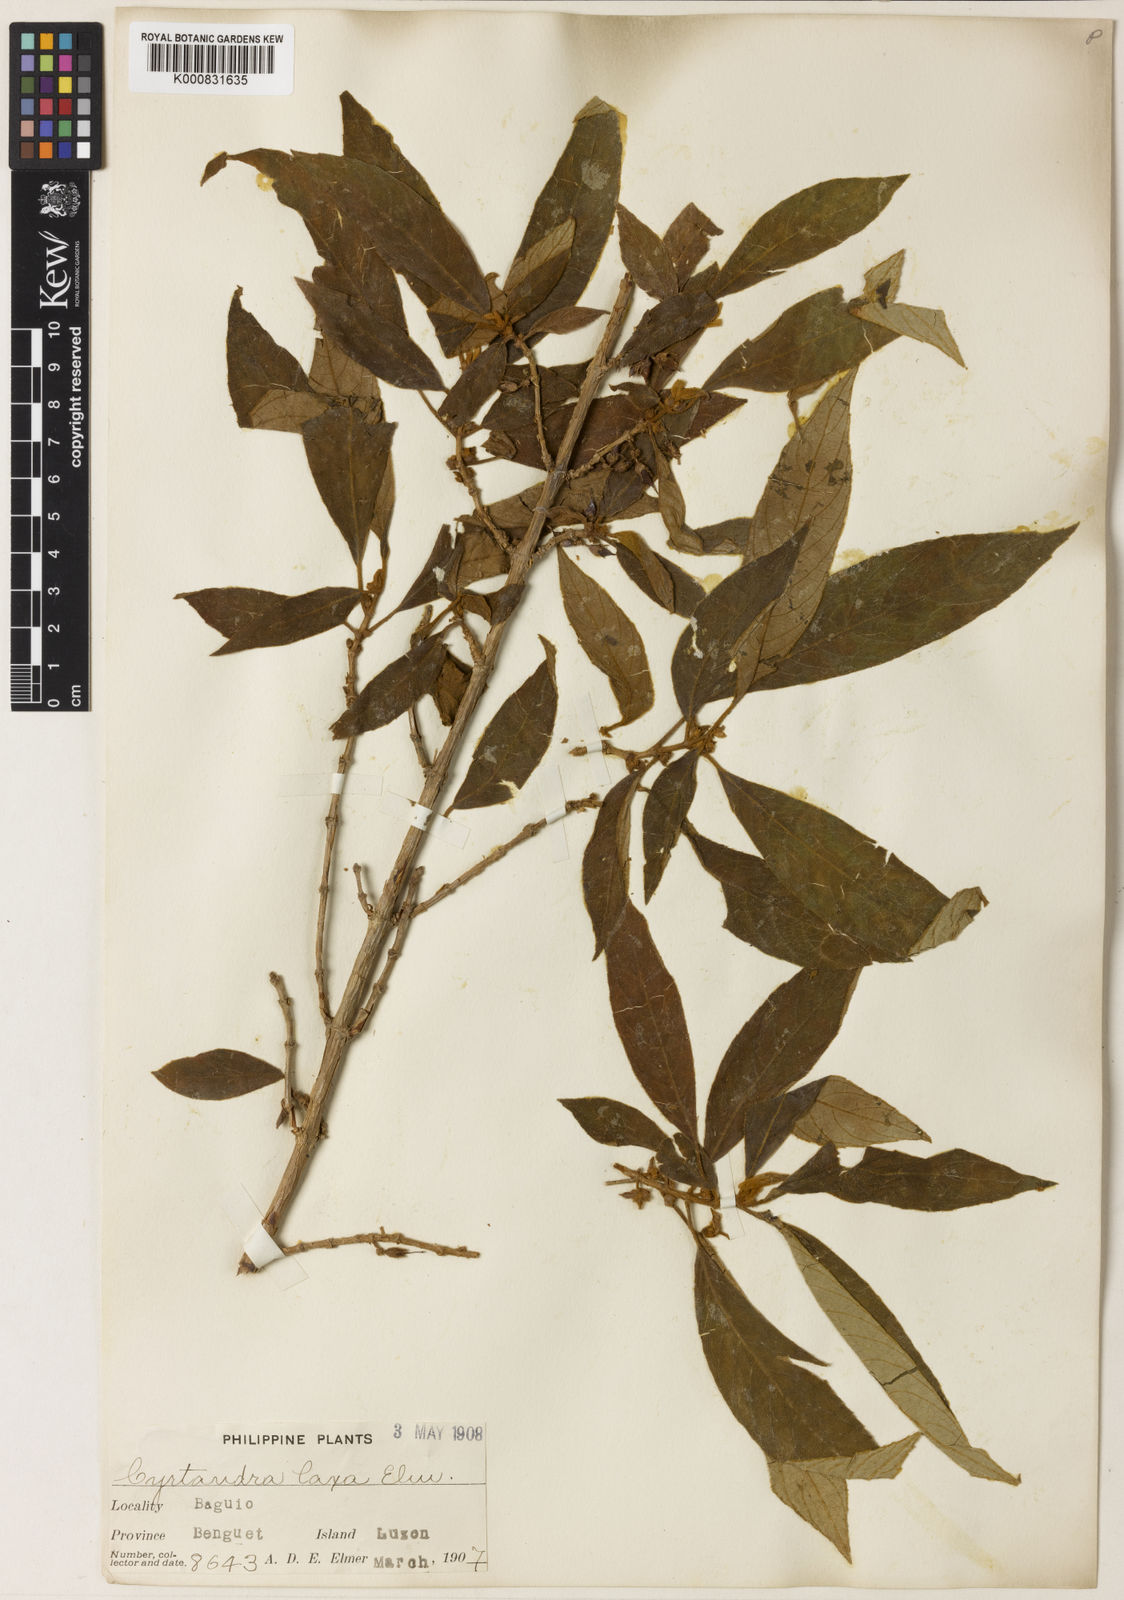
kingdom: Plantae
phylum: Tracheophyta
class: Magnoliopsida
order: Lamiales
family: Gesneriaceae
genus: Cyrtandra
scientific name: Cyrtandra pallida
